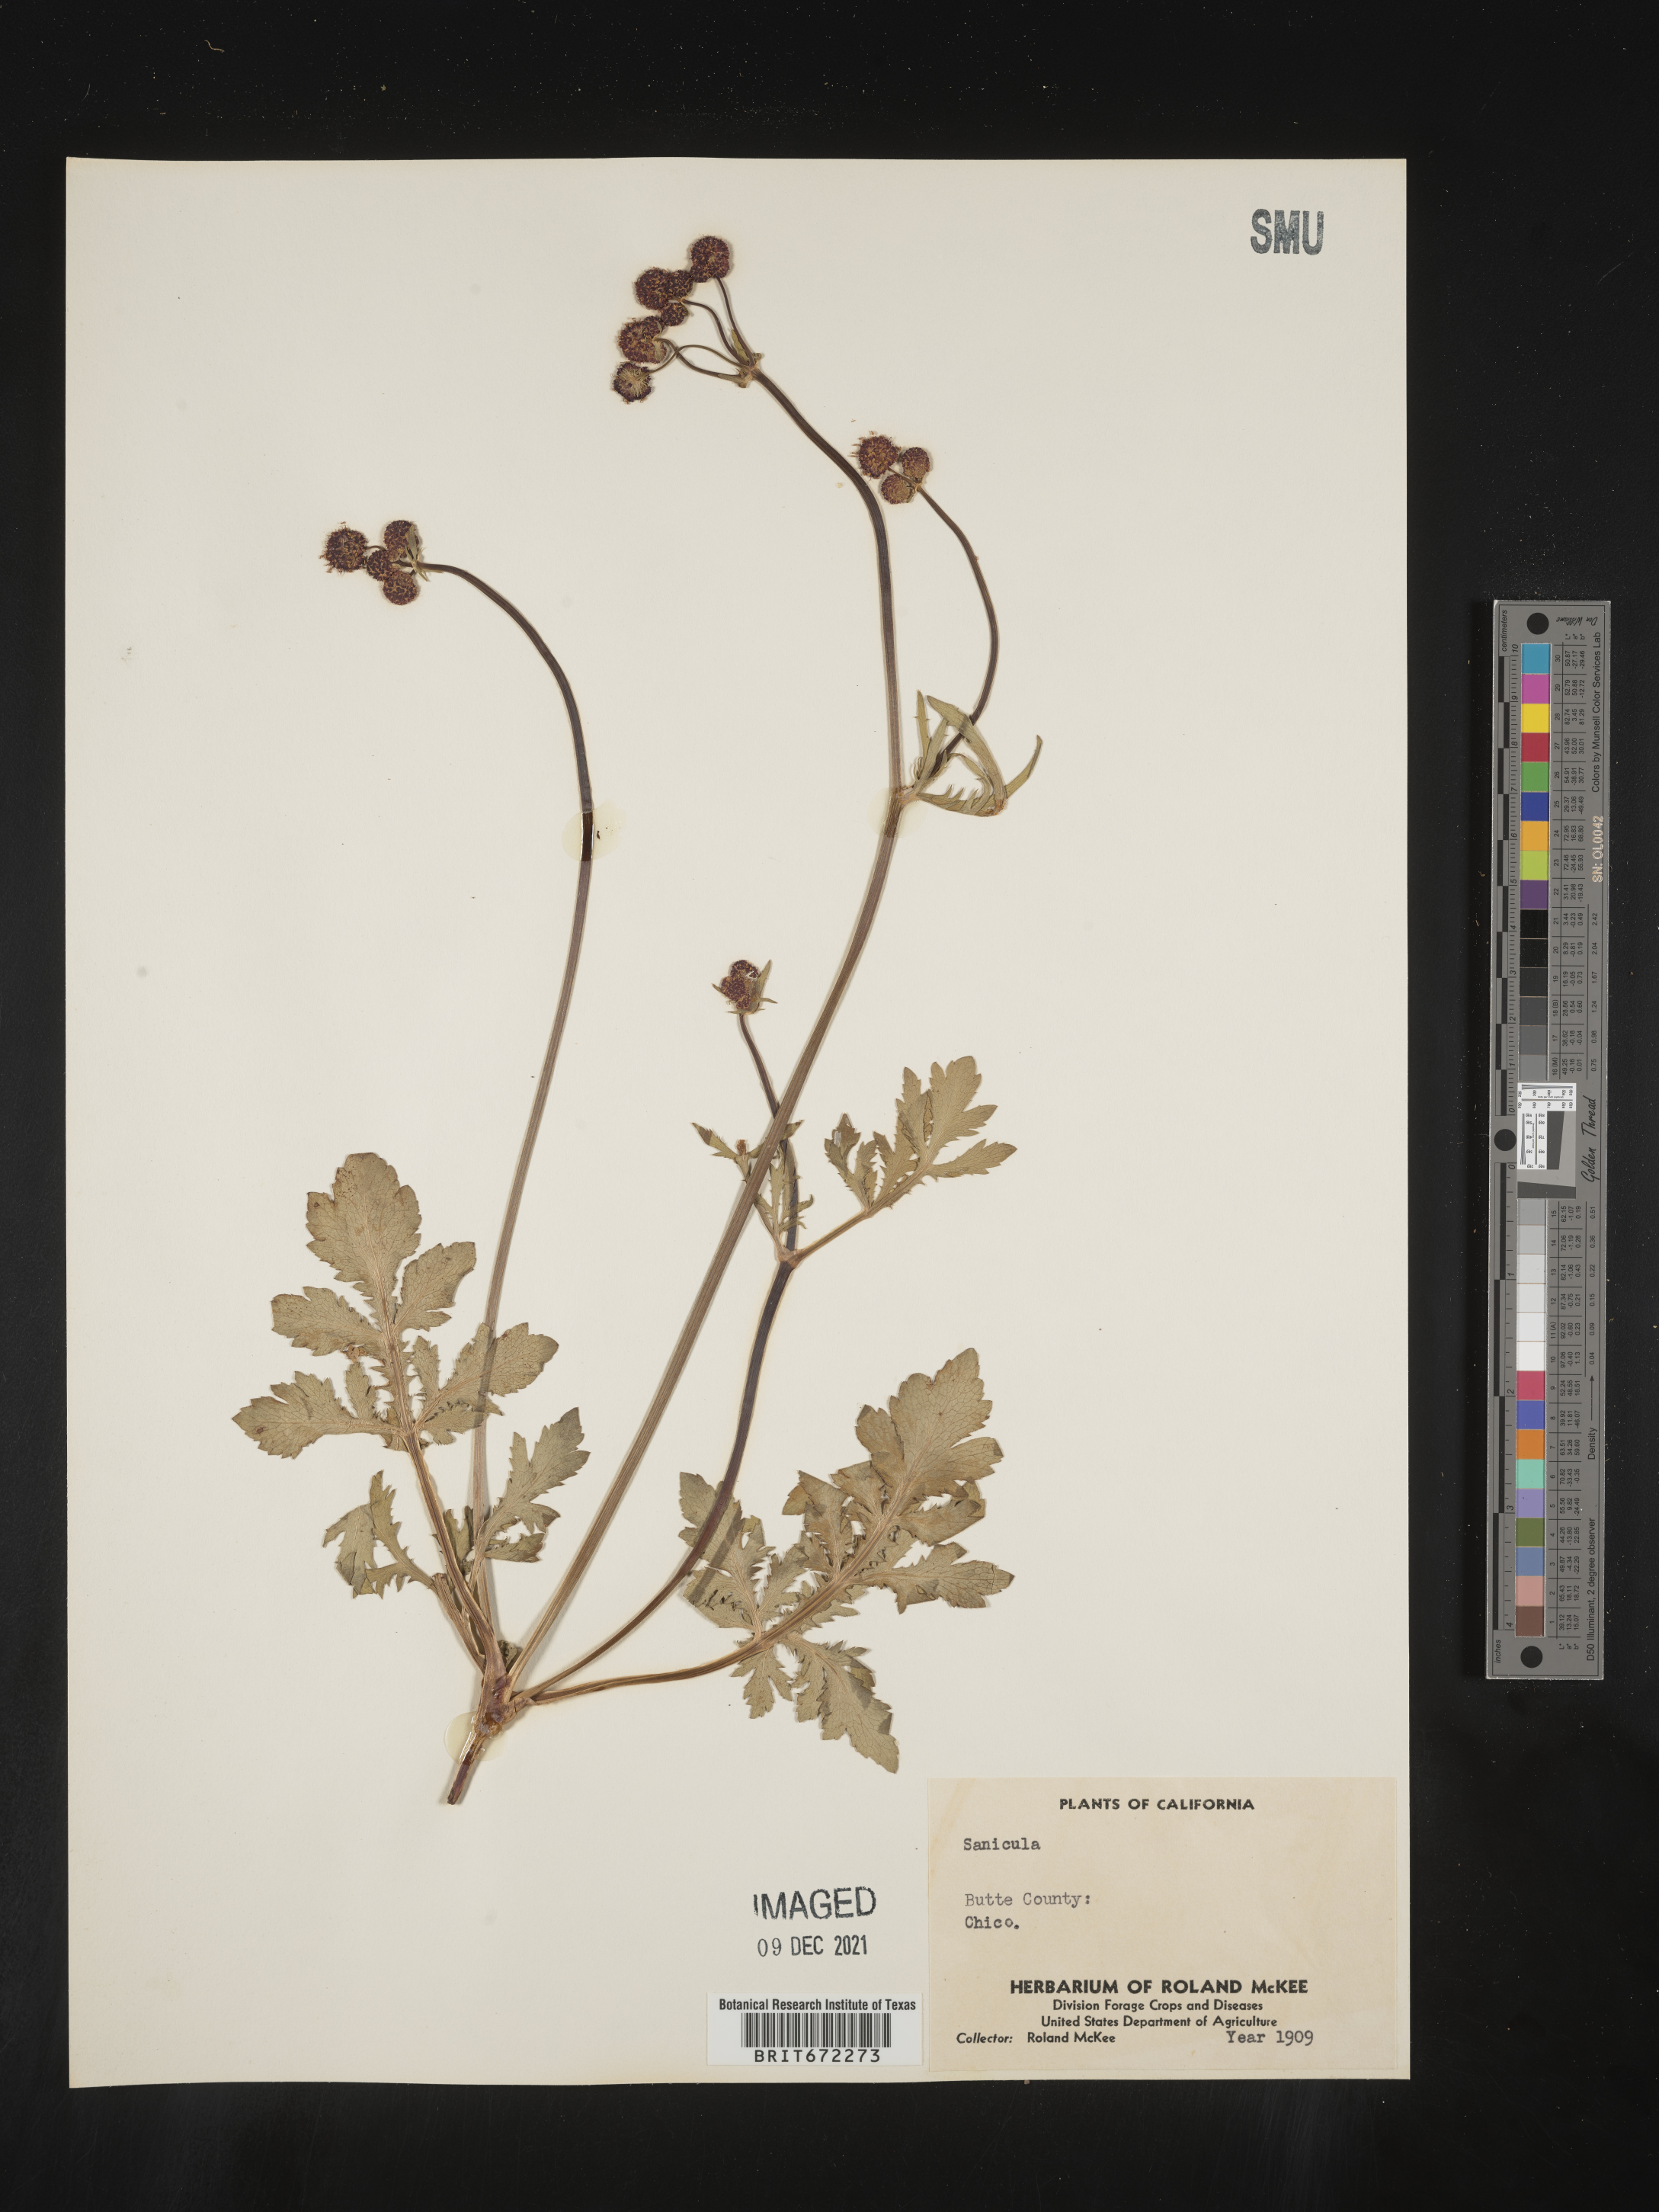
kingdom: Plantae
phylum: Tracheophyta
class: Magnoliopsida
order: Apiales
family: Apiaceae
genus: Sanicula
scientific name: Sanicula
